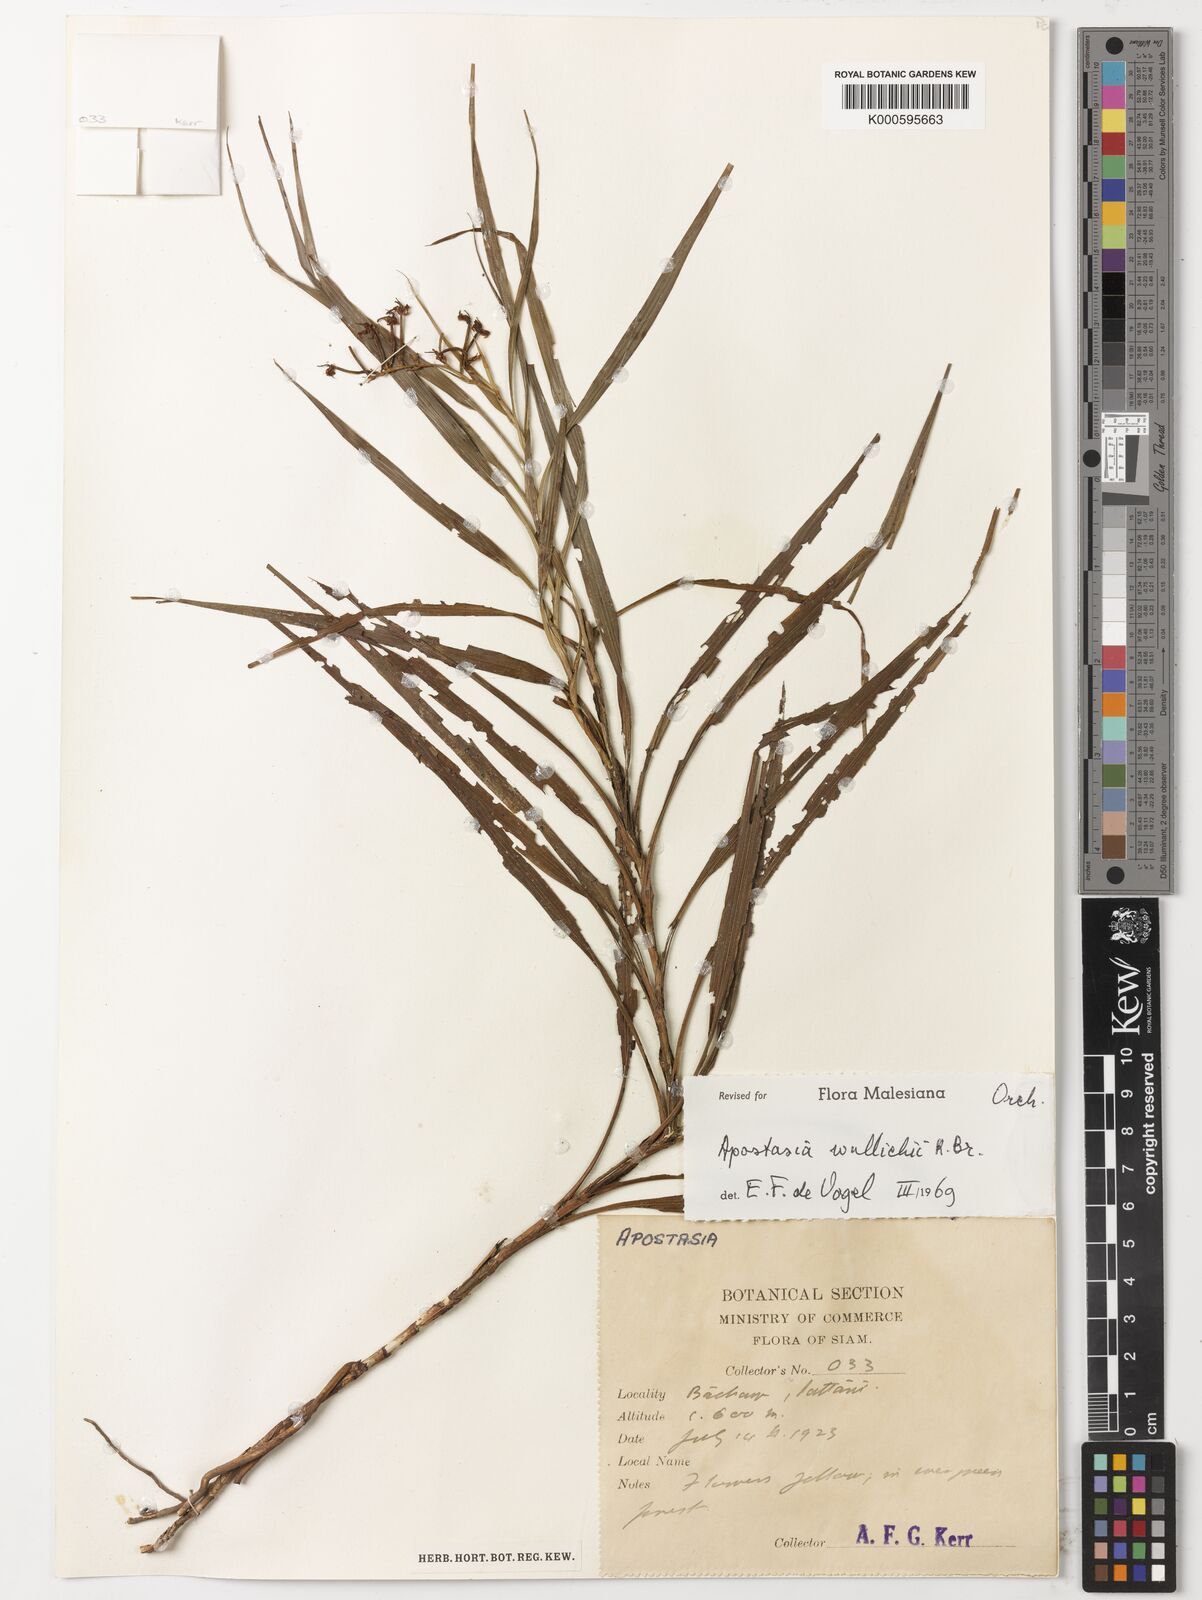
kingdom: Plantae
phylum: Tracheophyta
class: Liliopsida
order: Asparagales
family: Orchidaceae
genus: Apostasia
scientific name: Apostasia wallichii
